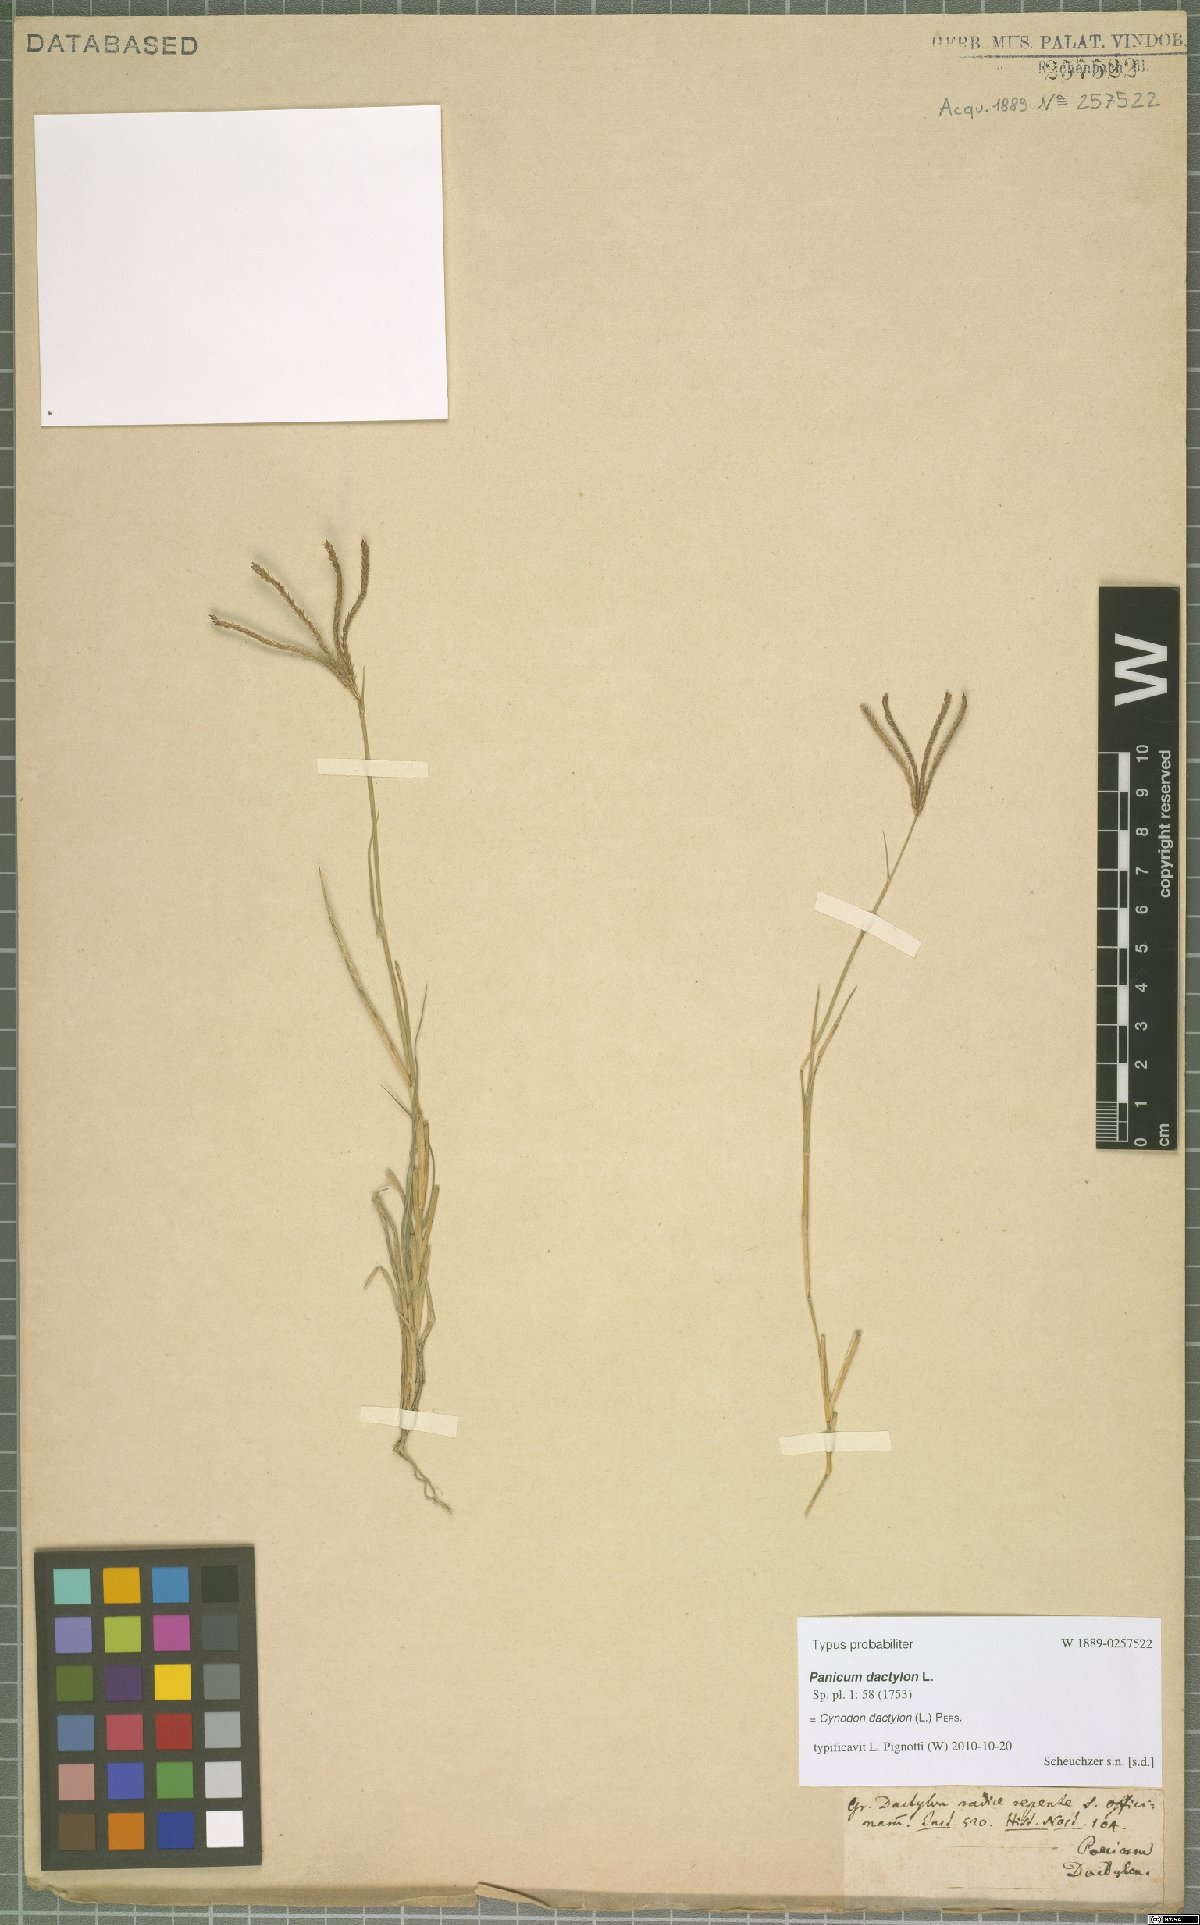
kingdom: Plantae
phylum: Tracheophyta
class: Liliopsida
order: Poales
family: Poaceae
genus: Cynodon
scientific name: Cynodon dactylon
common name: Bermuda grass
